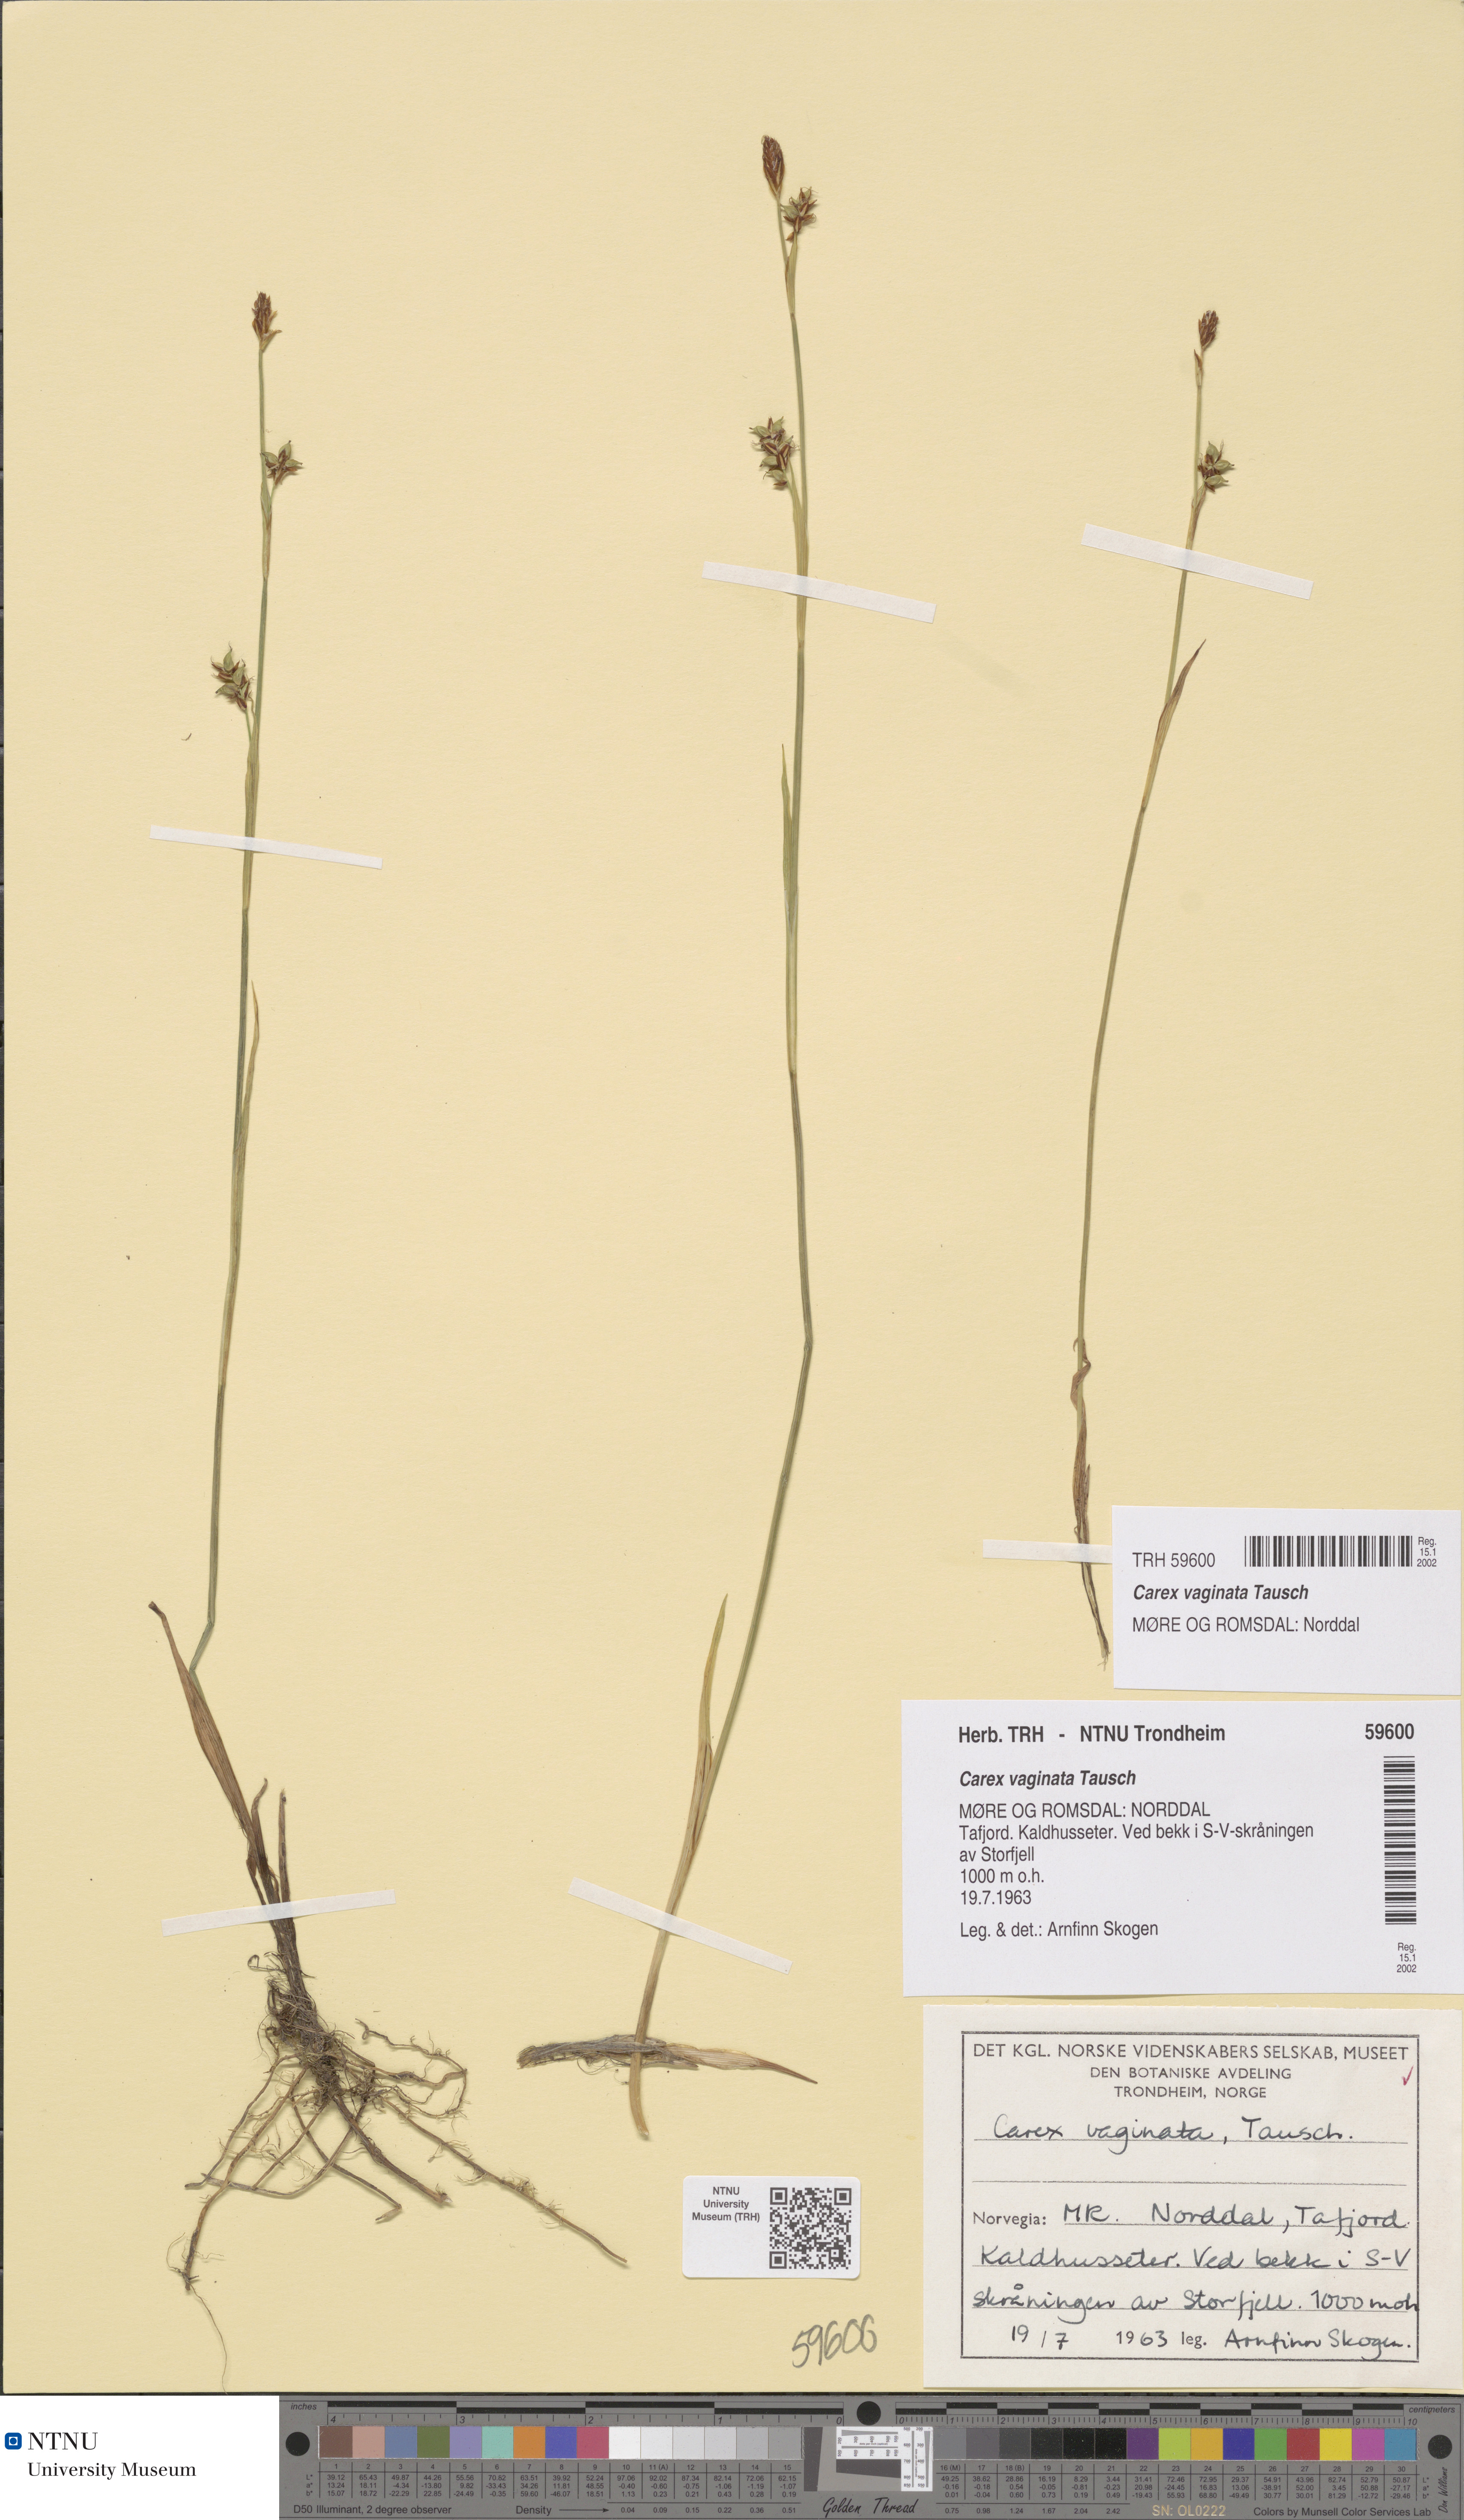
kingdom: Plantae
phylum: Tracheophyta
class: Liliopsida
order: Poales
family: Cyperaceae
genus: Carex
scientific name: Carex algida
